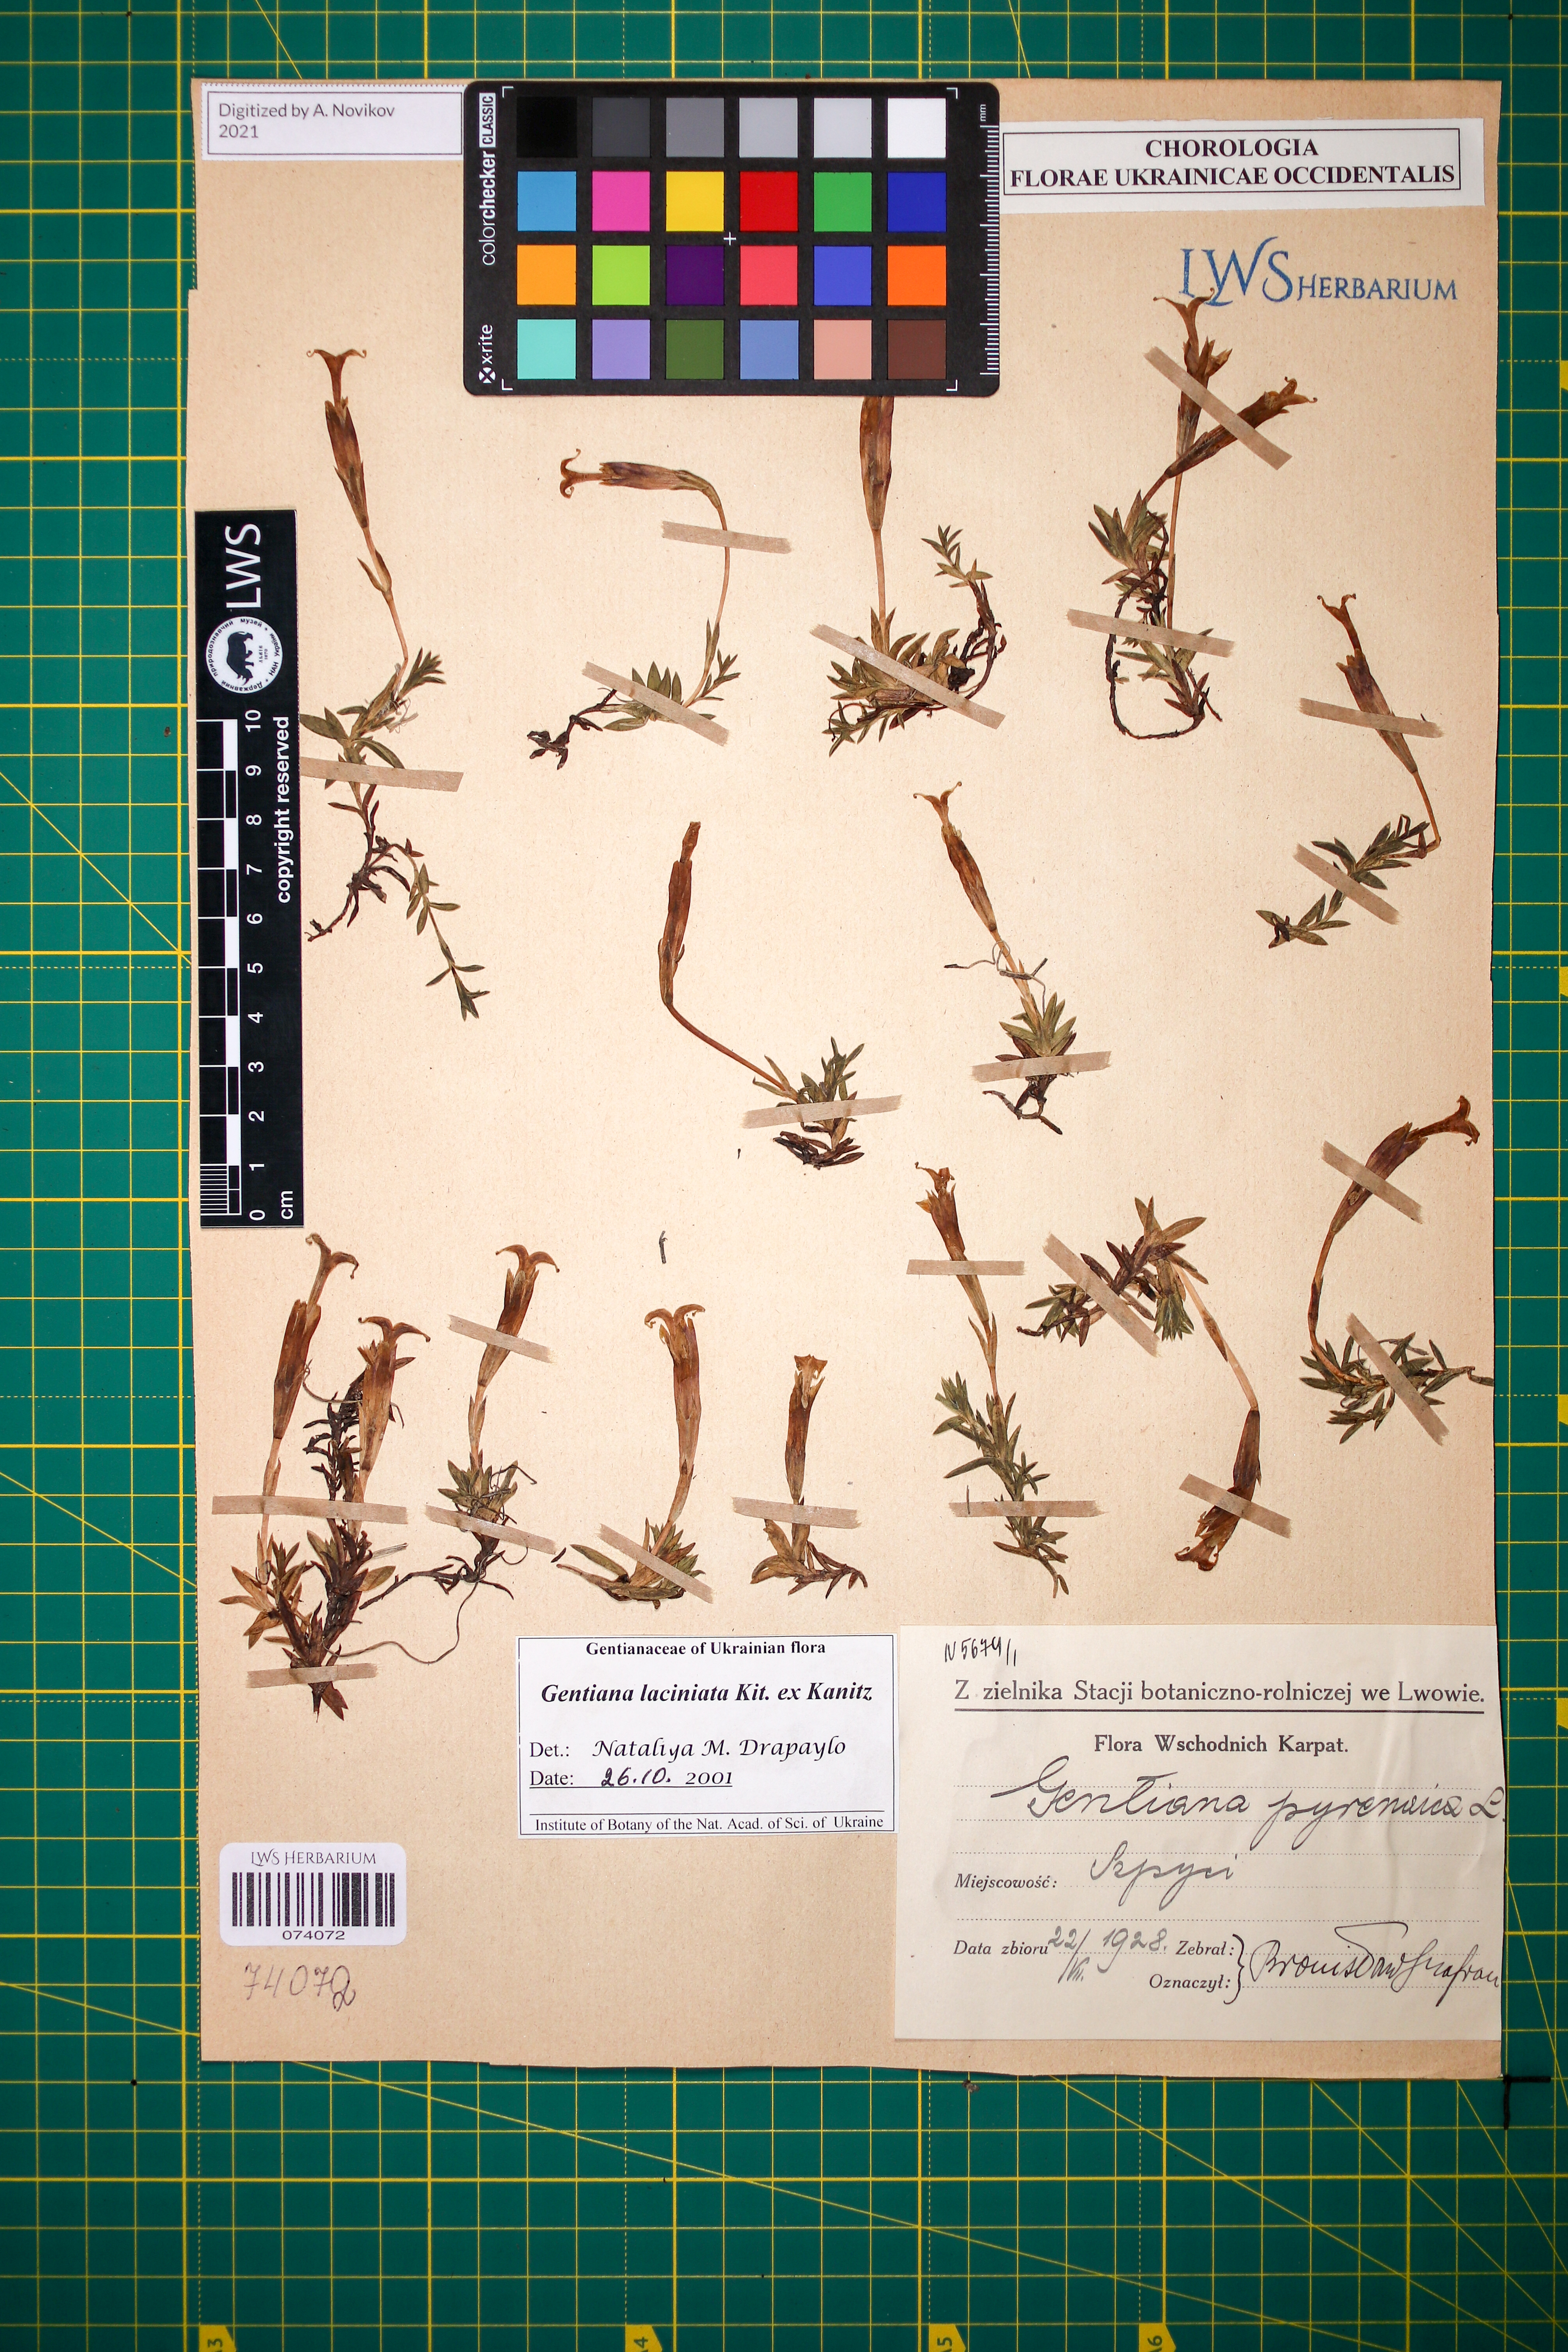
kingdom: Plantae
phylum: Tracheophyta
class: Magnoliopsida
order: Gentianales
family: Gentianaceae
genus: Gentiana
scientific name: Gentiana laciniata
